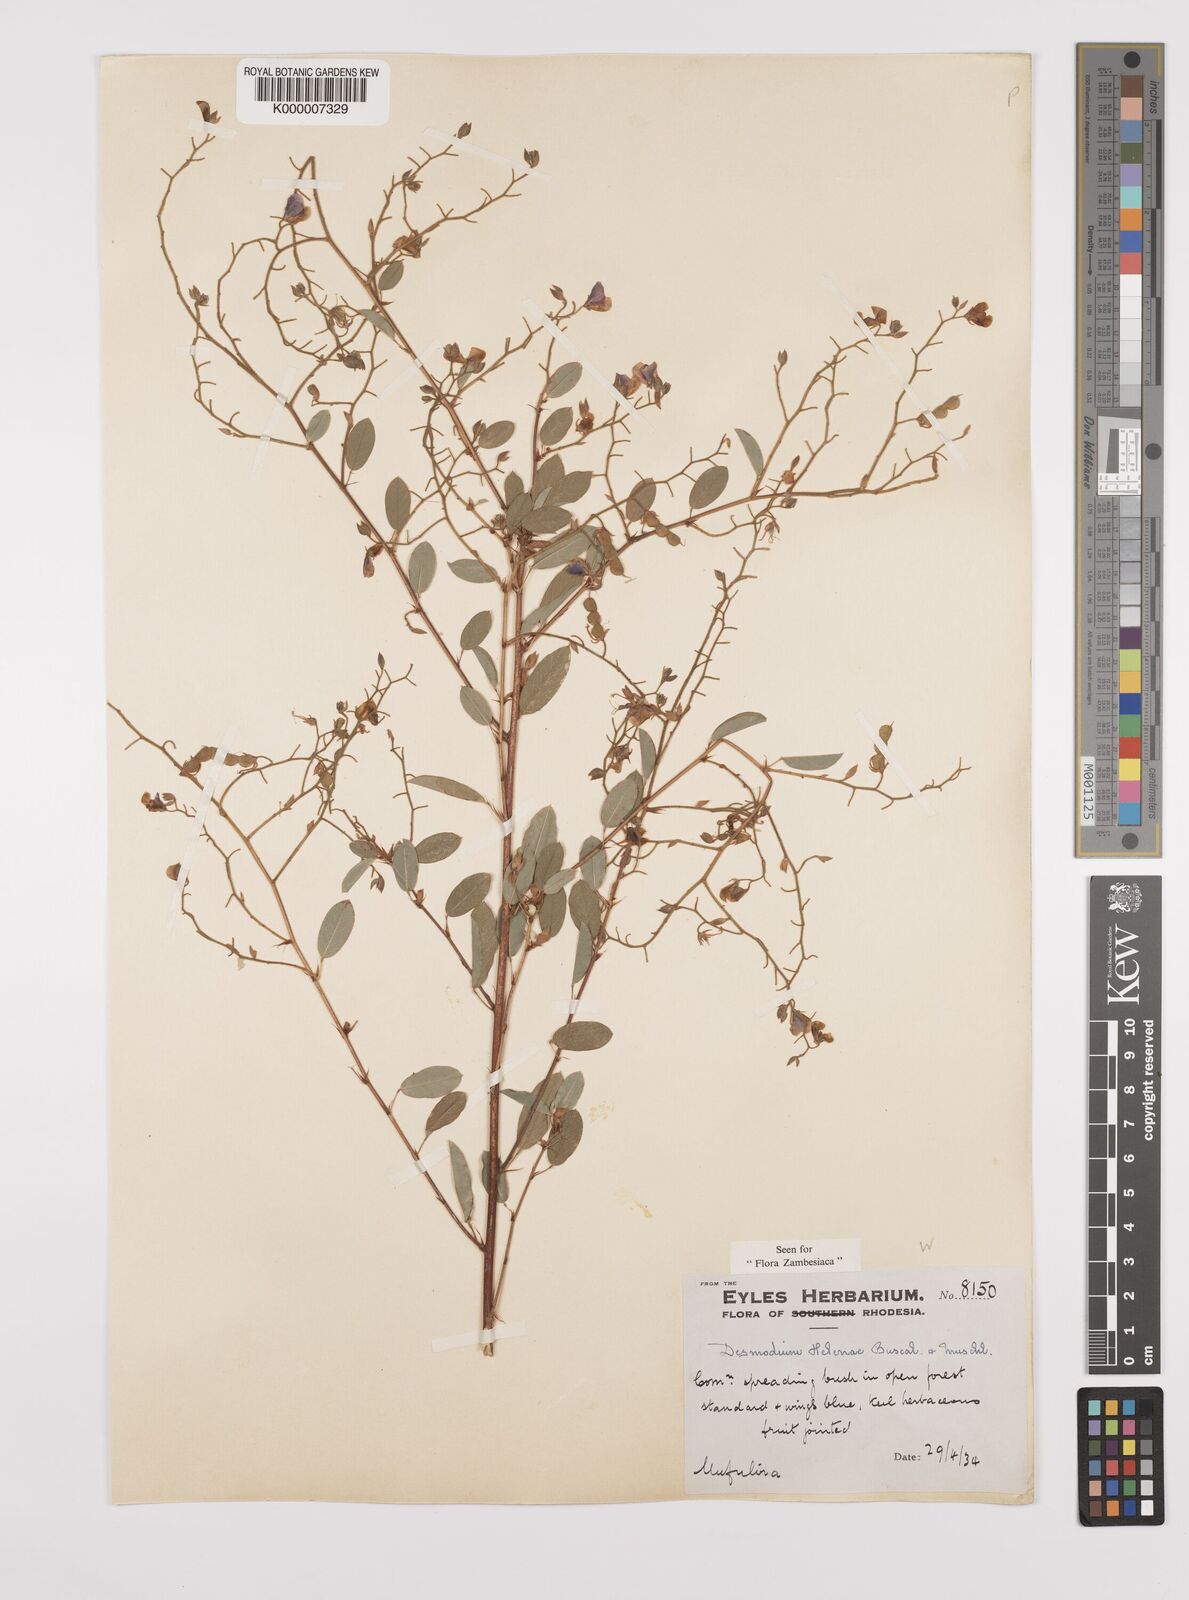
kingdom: Plantae
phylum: Tracheophyta
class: Magnoliopsida
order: Fabales
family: Fabaceae
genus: Grona
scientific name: Grona helenae
